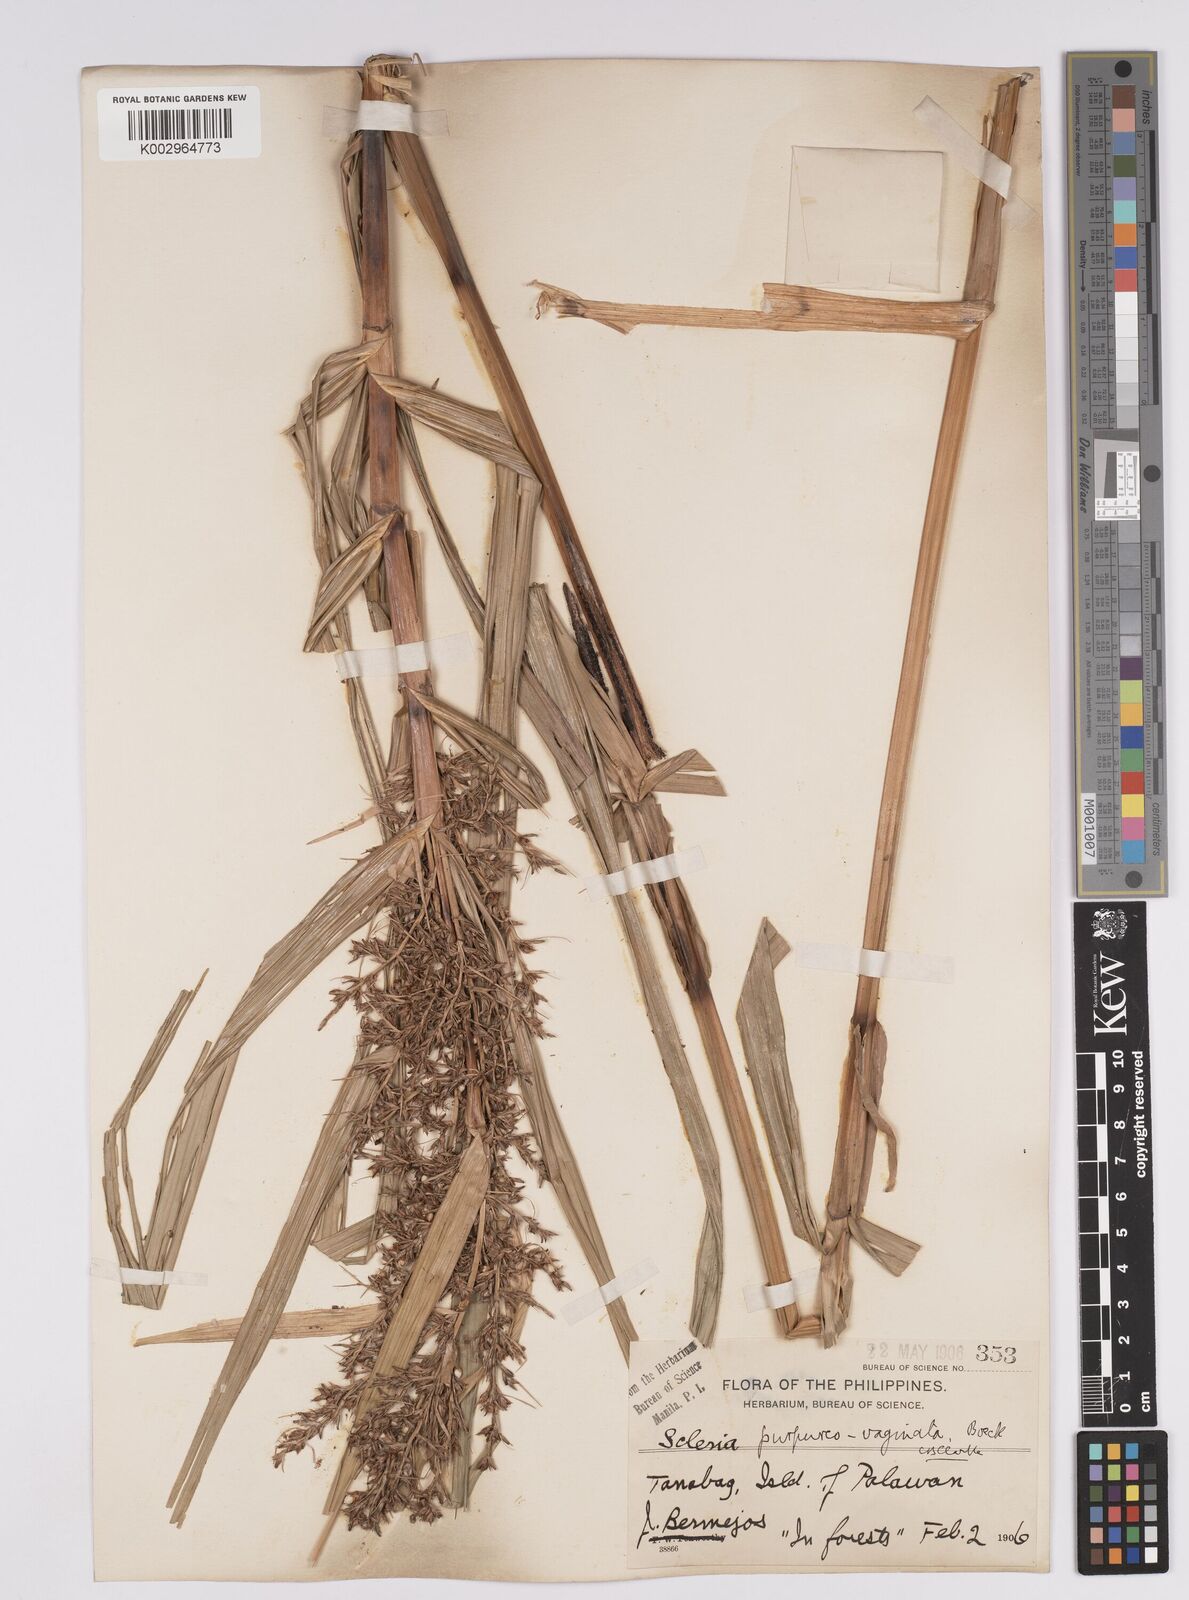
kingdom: Plantae
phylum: Tracheophyta
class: Liliopsida
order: Poales
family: Cyperaceae
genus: Scleria
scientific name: Scleria scrobiculata
